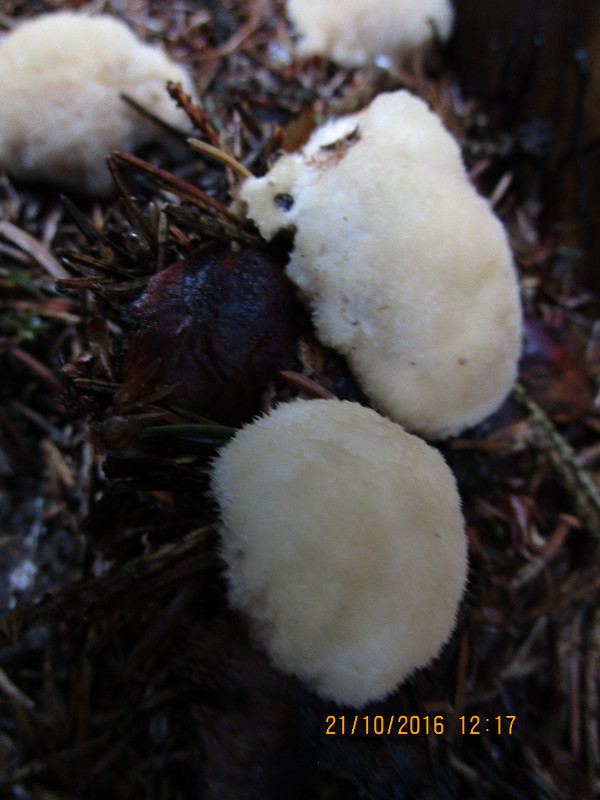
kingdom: Fungi
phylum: Basidiomycota
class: Agaricomycetes
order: Polyporales
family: Dacryobolaceae
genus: Postia
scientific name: Postia ptychogaster
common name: støvende kødporesvamp
